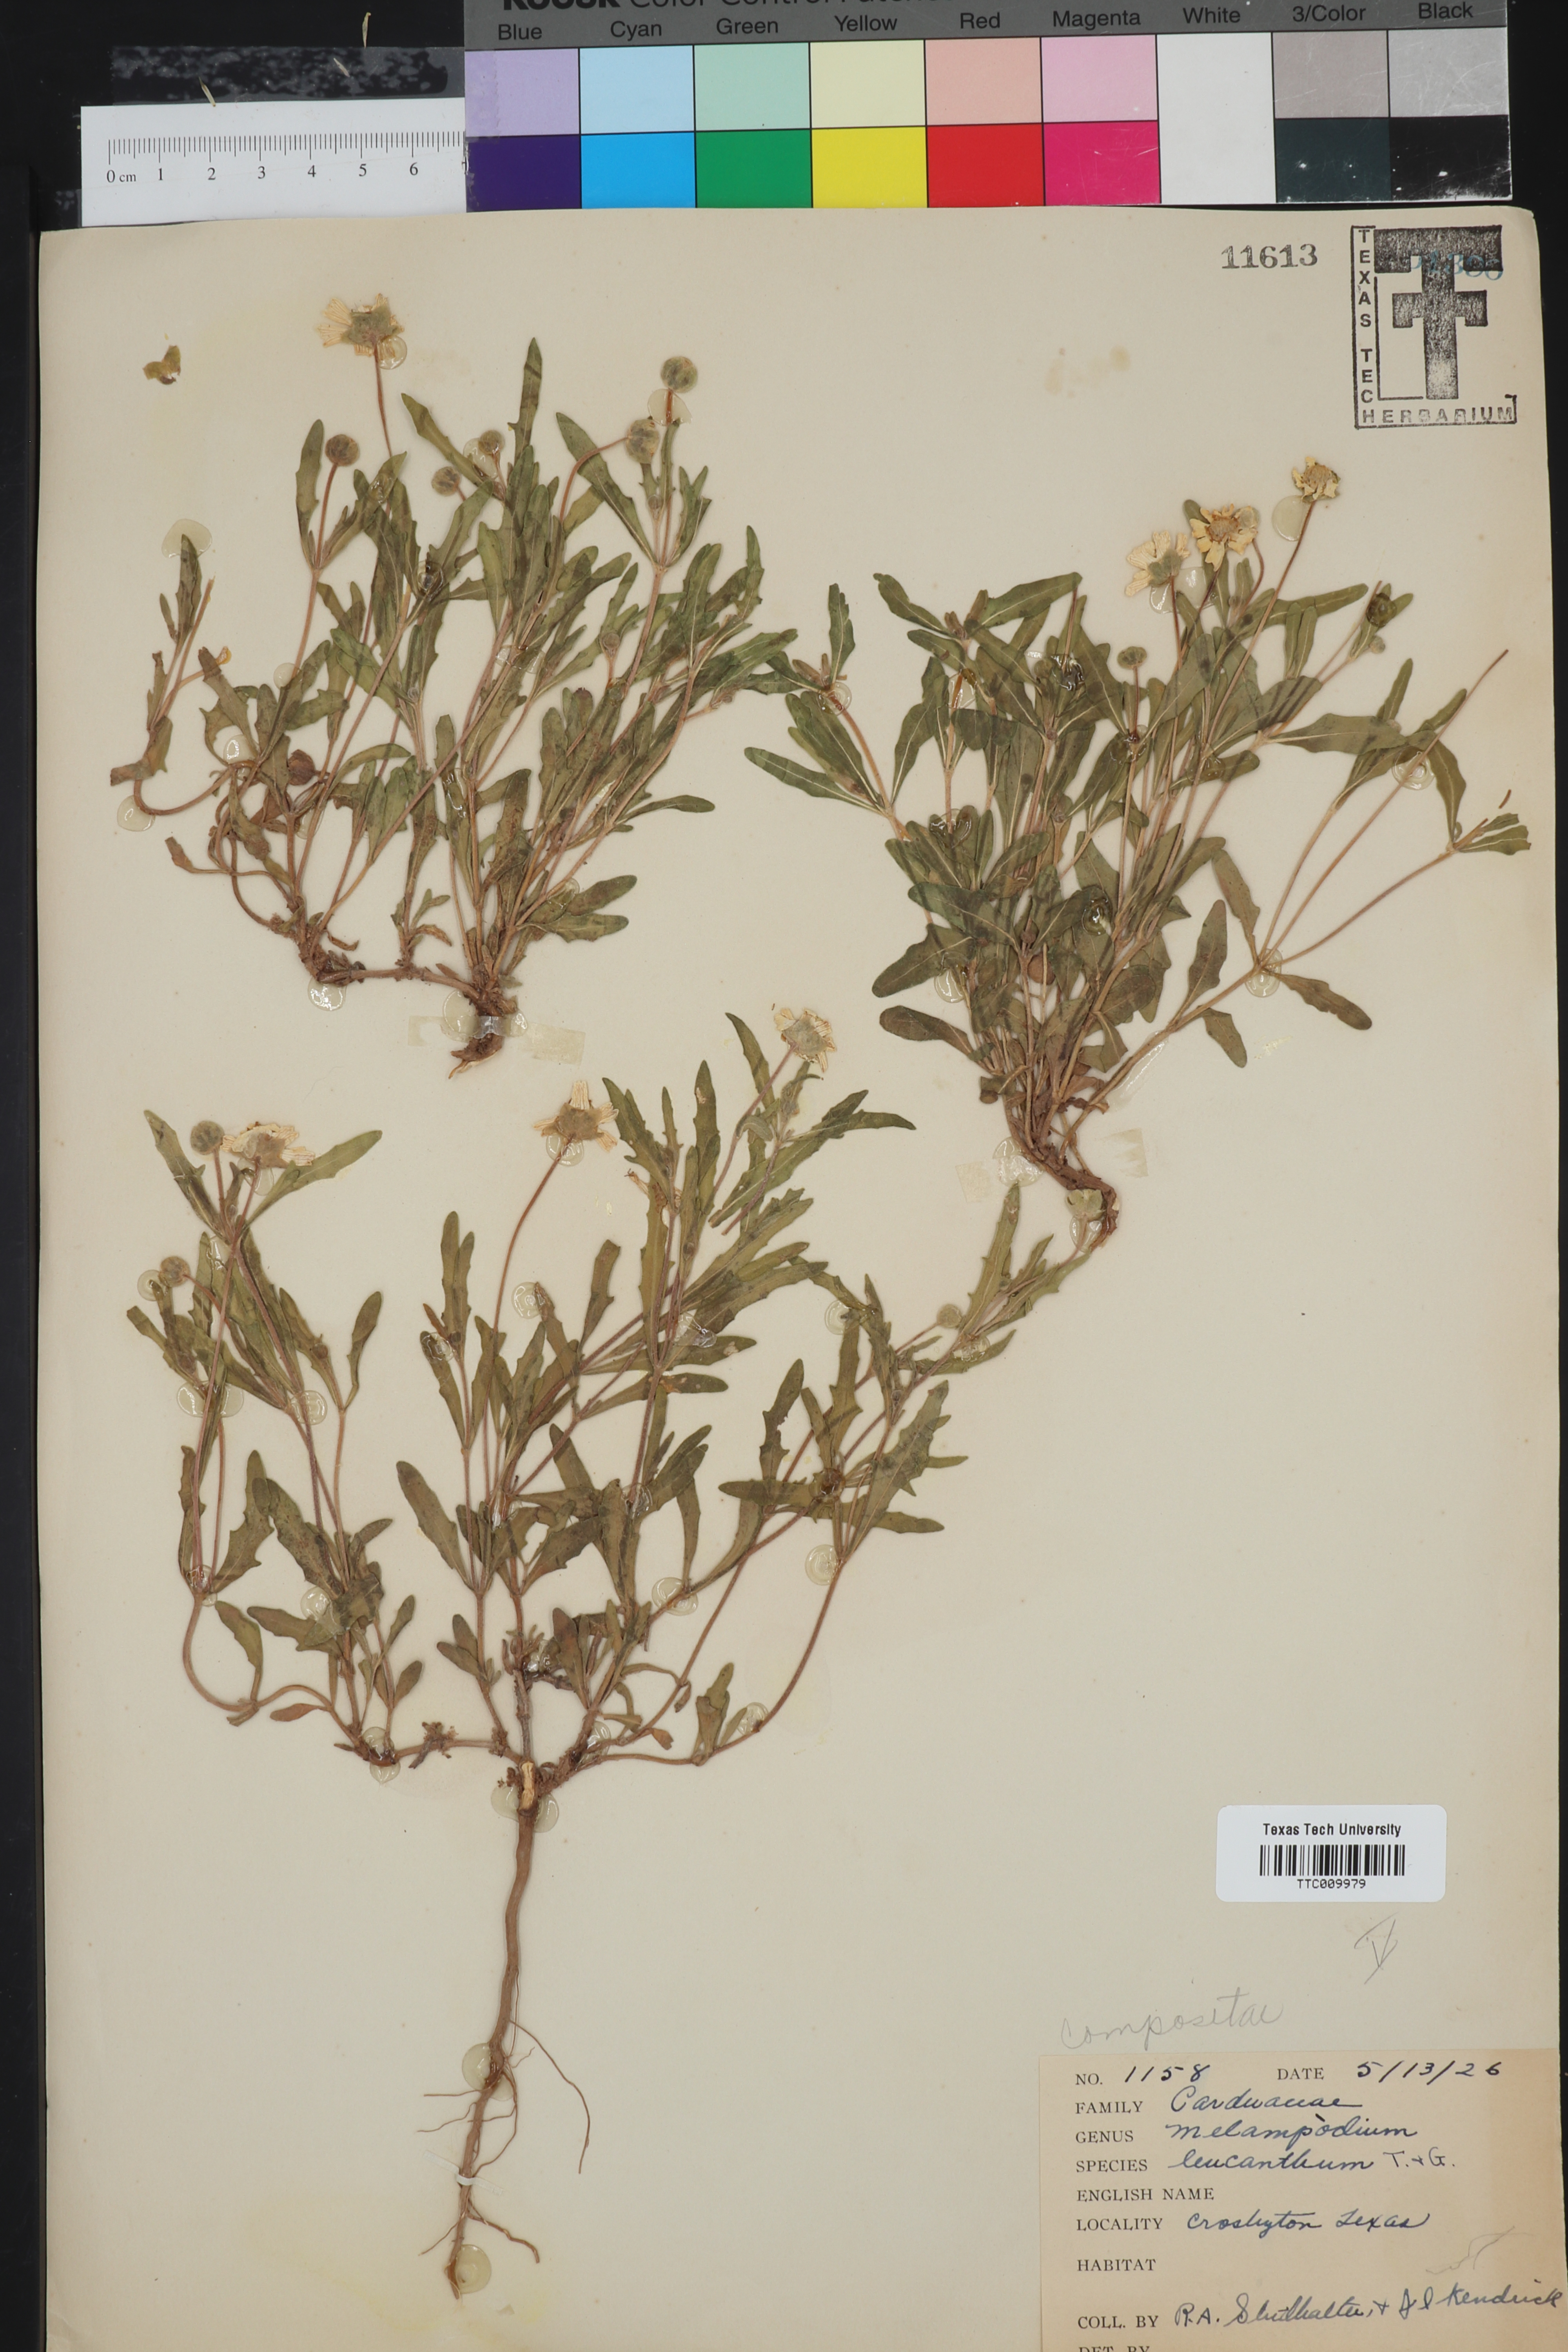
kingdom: Plantae
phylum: Tracheophyta
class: Magnoliopsida
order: Asterales
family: Asteraceae
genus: Melampodium
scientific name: Melampodium leucanthum
